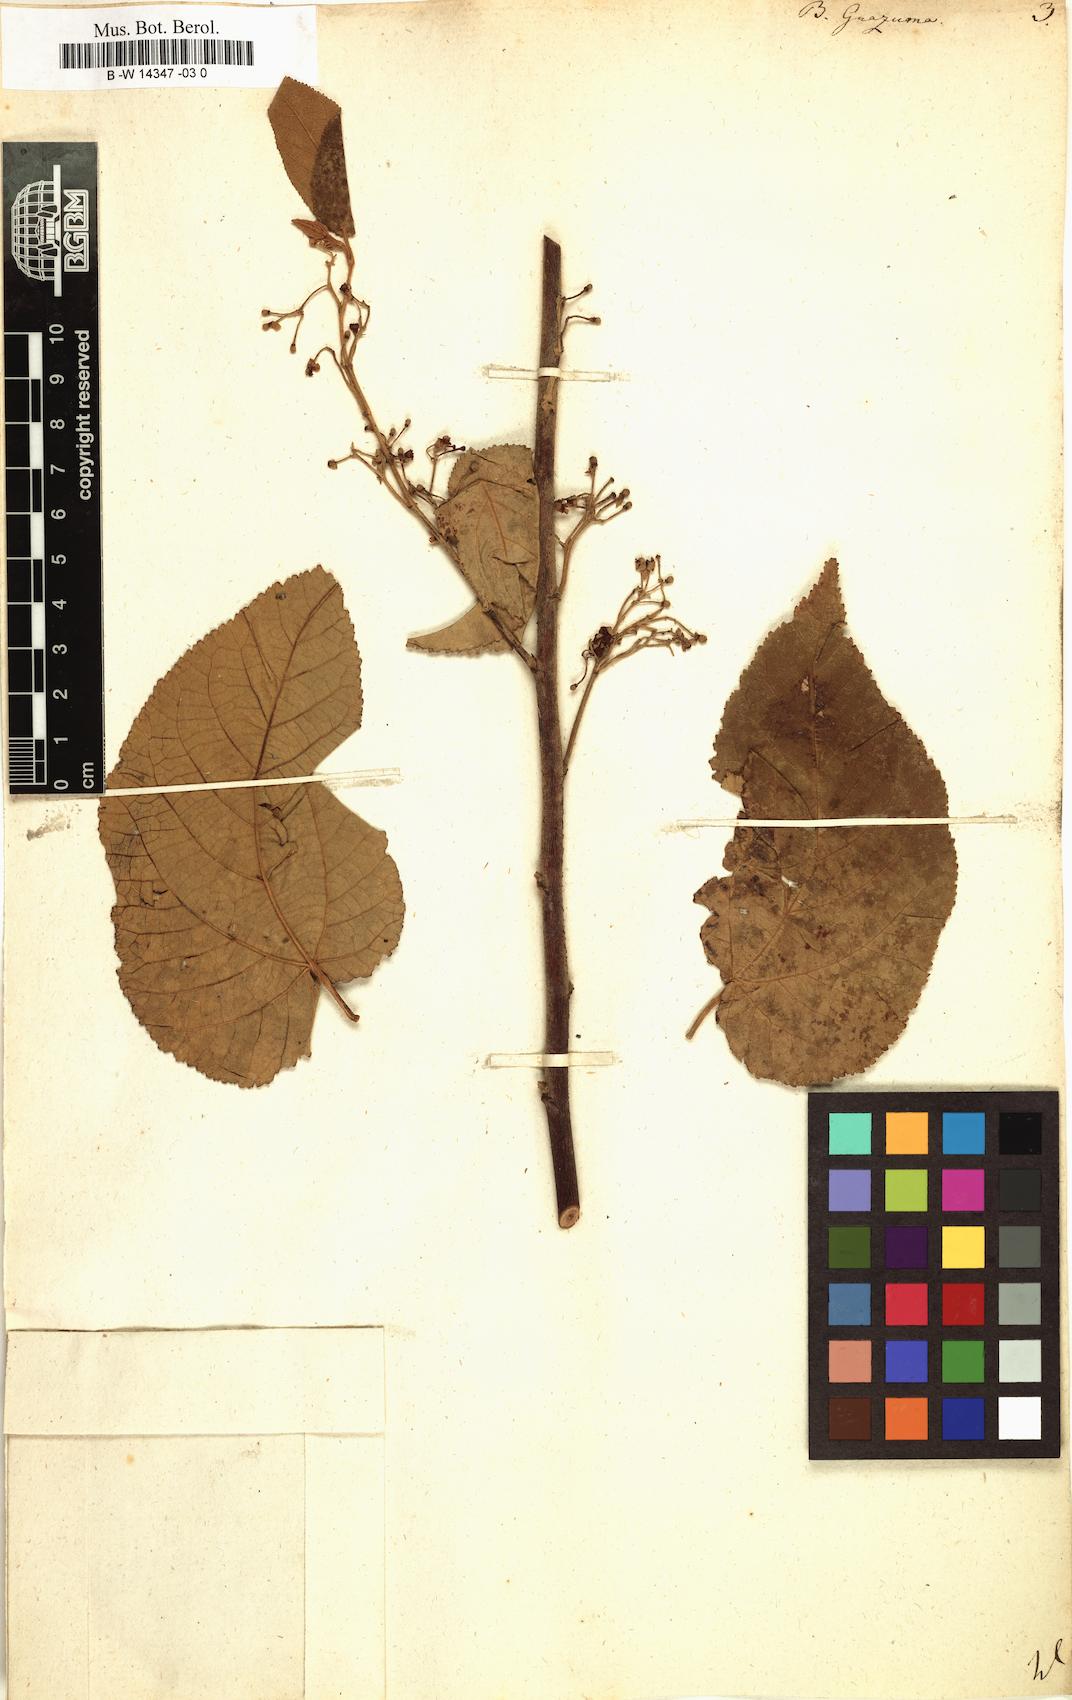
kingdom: Plantae
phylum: Tracheophyta
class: Magnoliopsida
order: Malvales
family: Malvaceae
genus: Guazuma
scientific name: Guazuma ulmifolia
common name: Bastard-cedar
